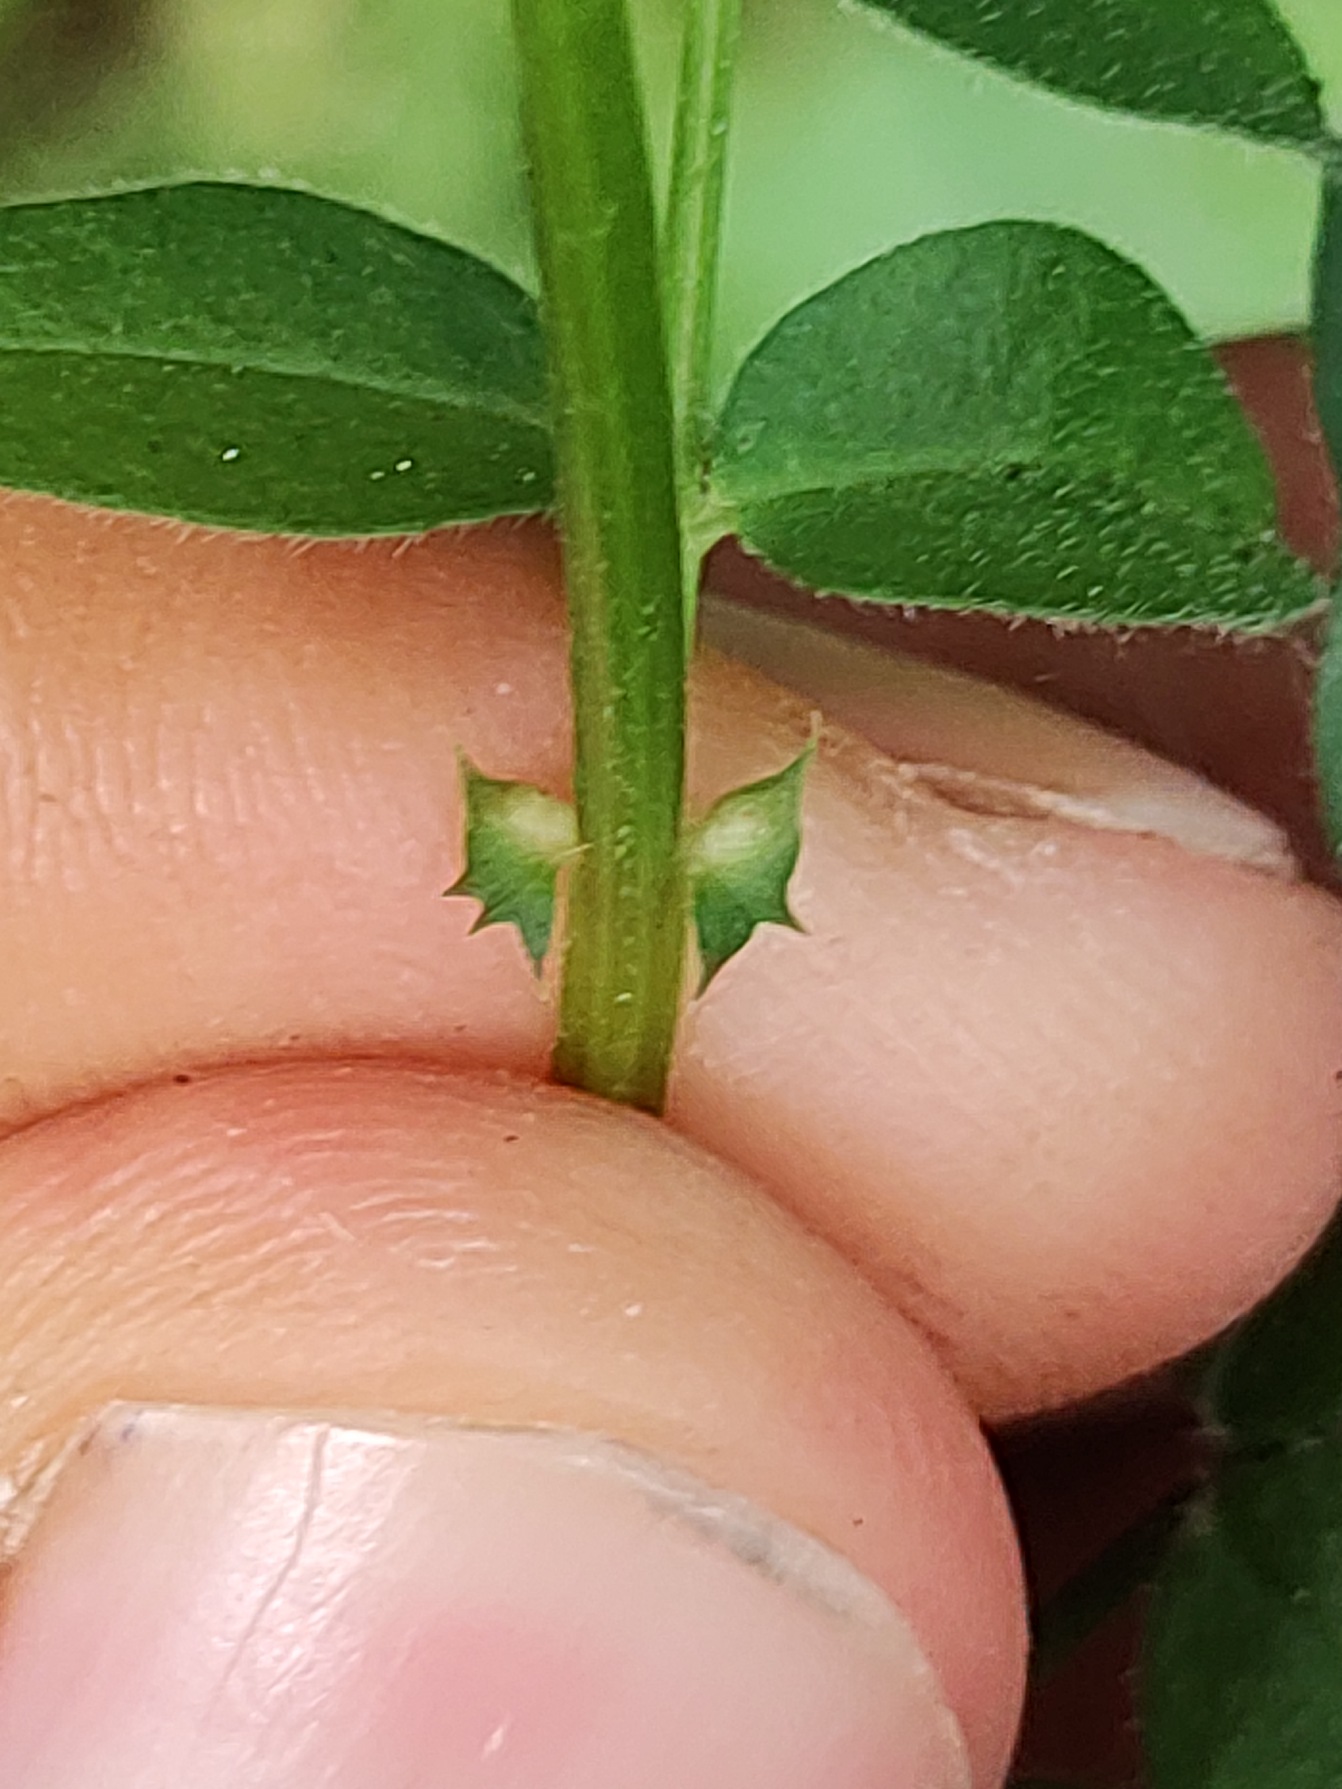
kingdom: Plantae
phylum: Tracheophyta
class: Magnoliopsida
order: Fabales
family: Fabaceae
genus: Vicia
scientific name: Vicia sepium
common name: Gærde-vikke
